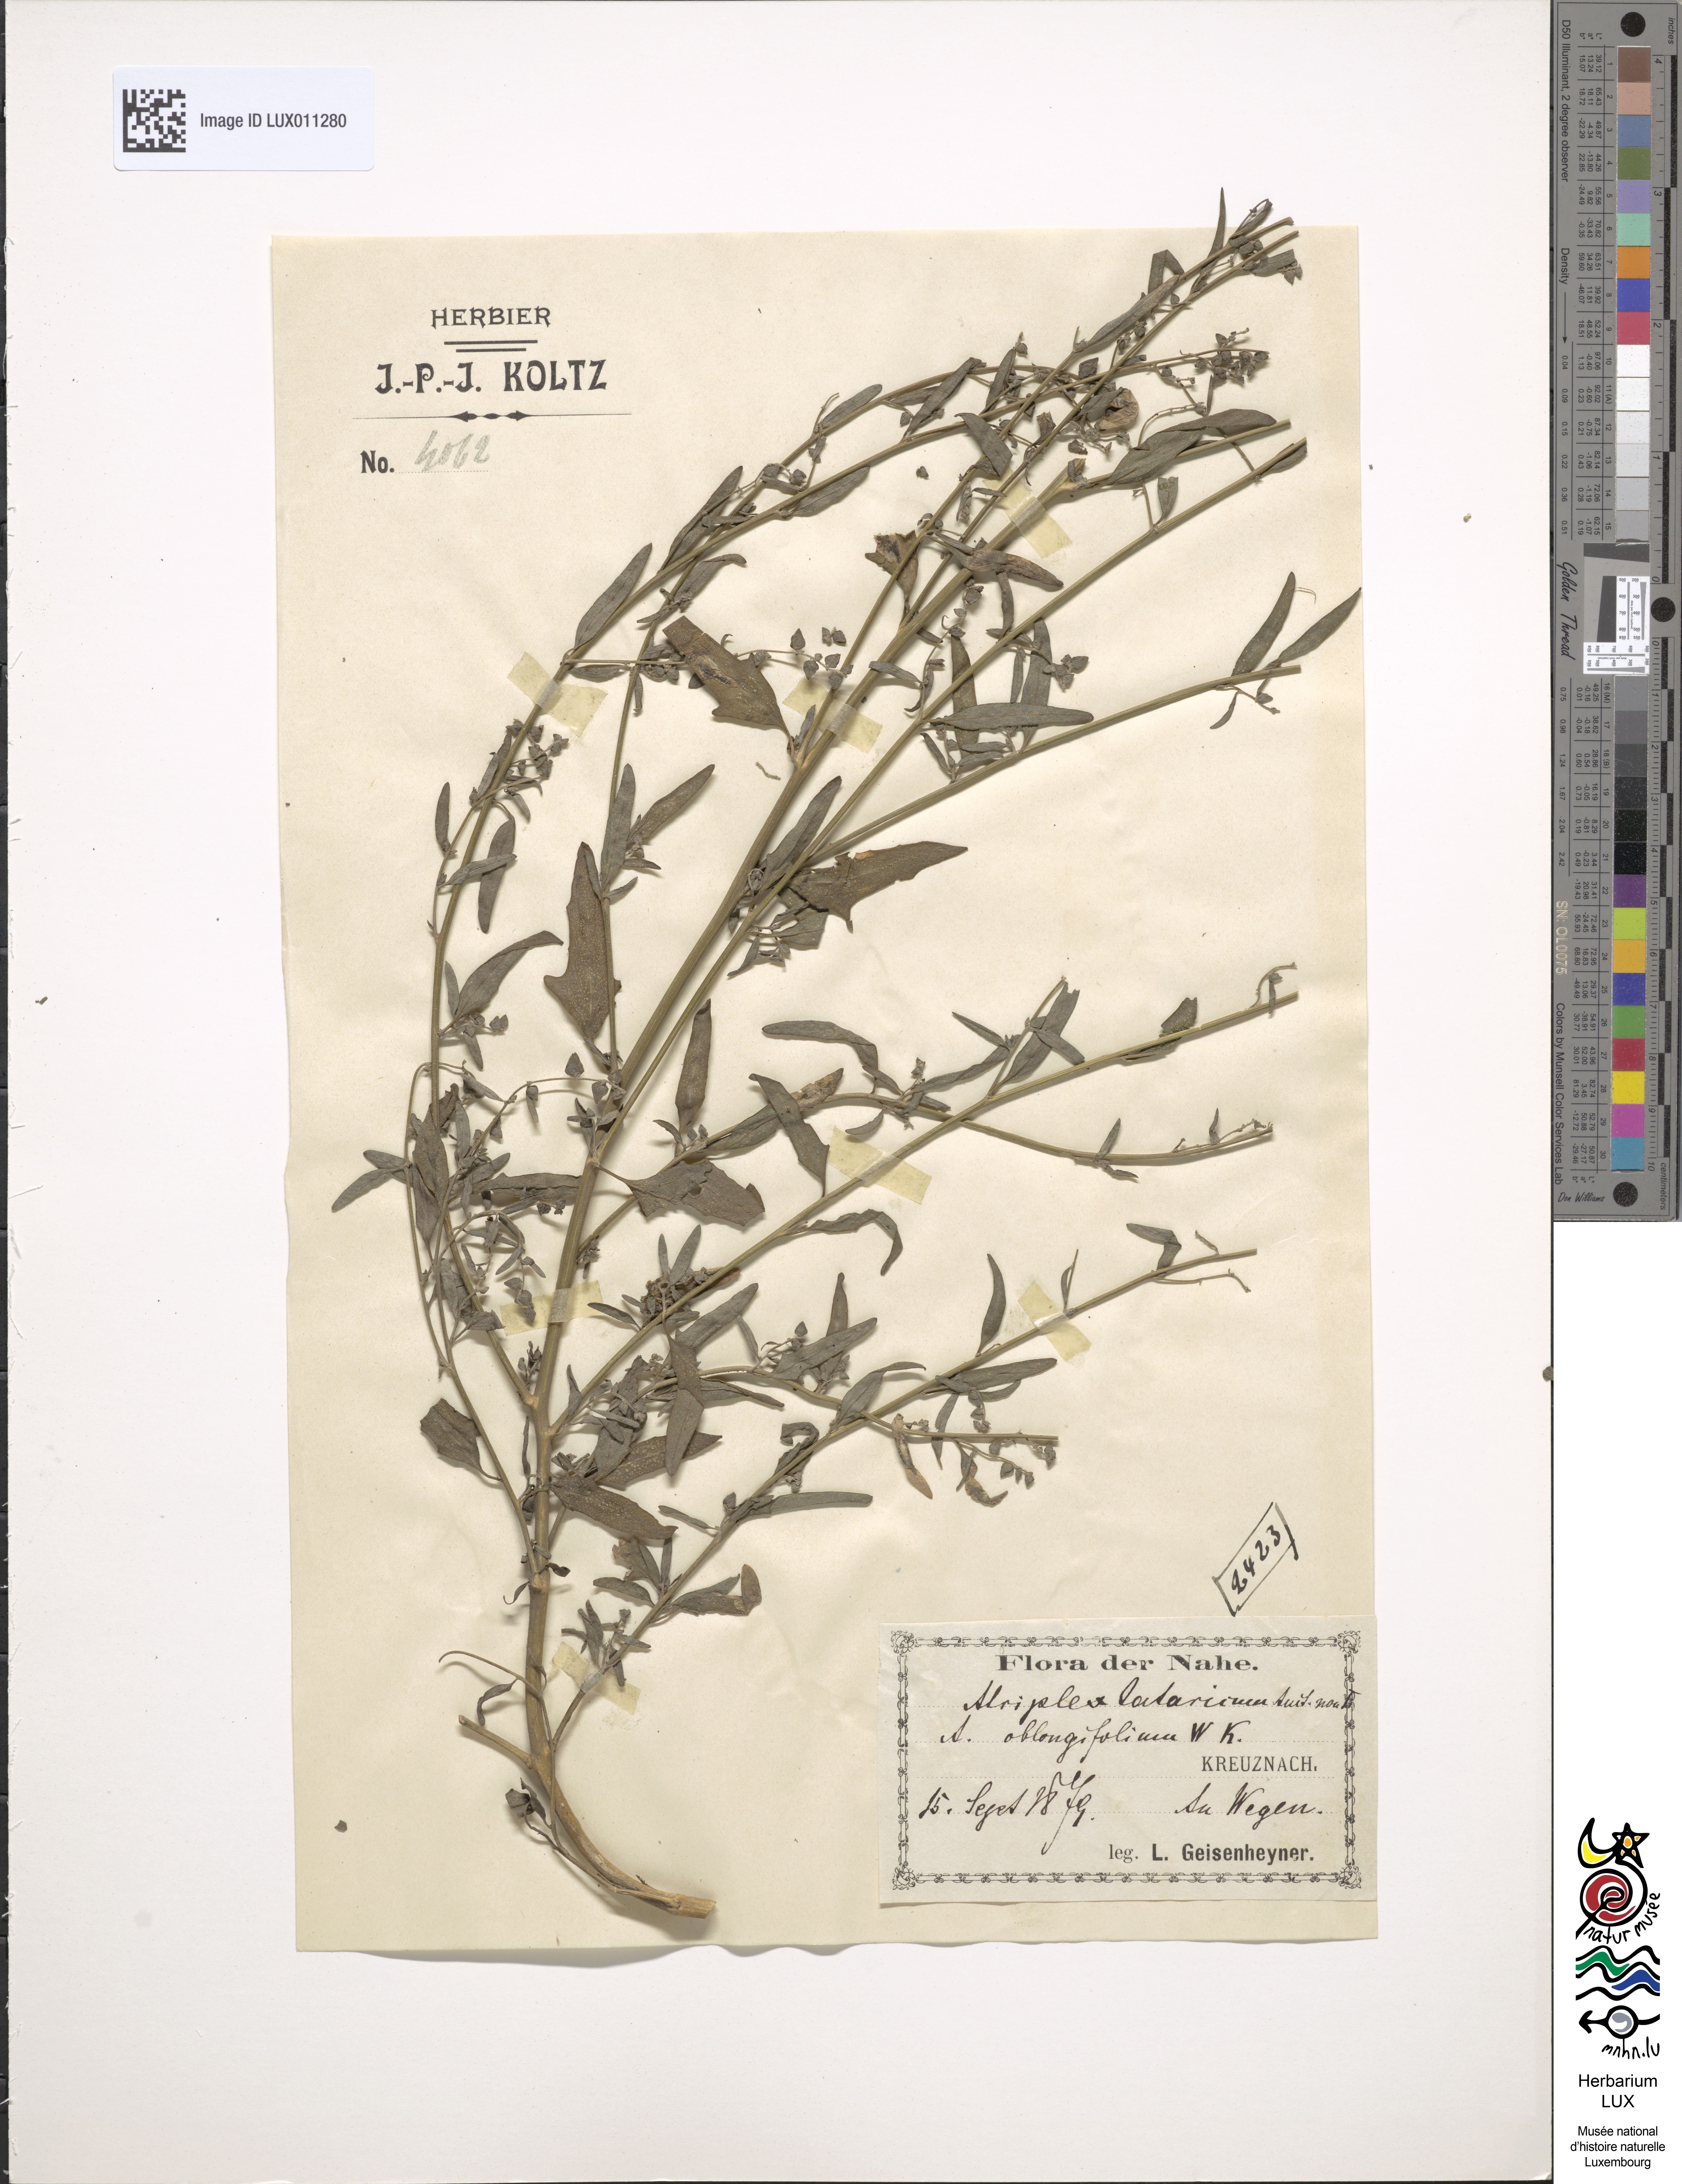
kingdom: Plantae
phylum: Tracheophyta
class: Magnoliopsida
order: Caryophyllales
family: Amaranthaceae
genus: Atriplex
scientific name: Atriplex oblongifolia
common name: Oblongleaf orache
